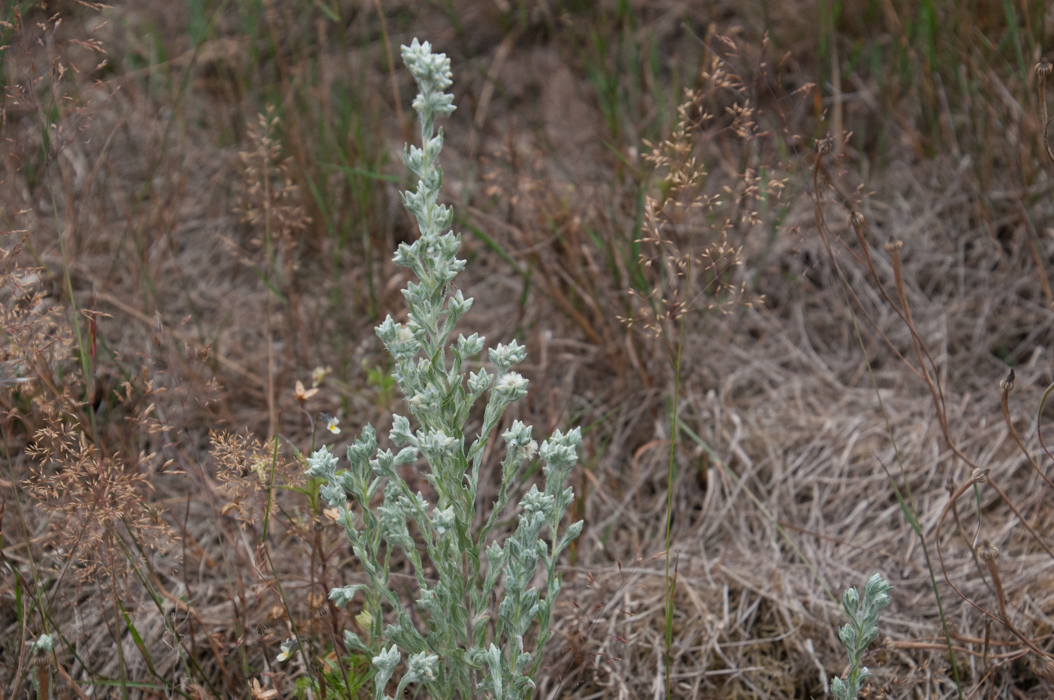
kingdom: Plantae
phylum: Tracheophyta
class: Magnoliopsida
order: Asterales
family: Asteraceae
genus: Filago
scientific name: Filago arvensis
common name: Field cudweed
